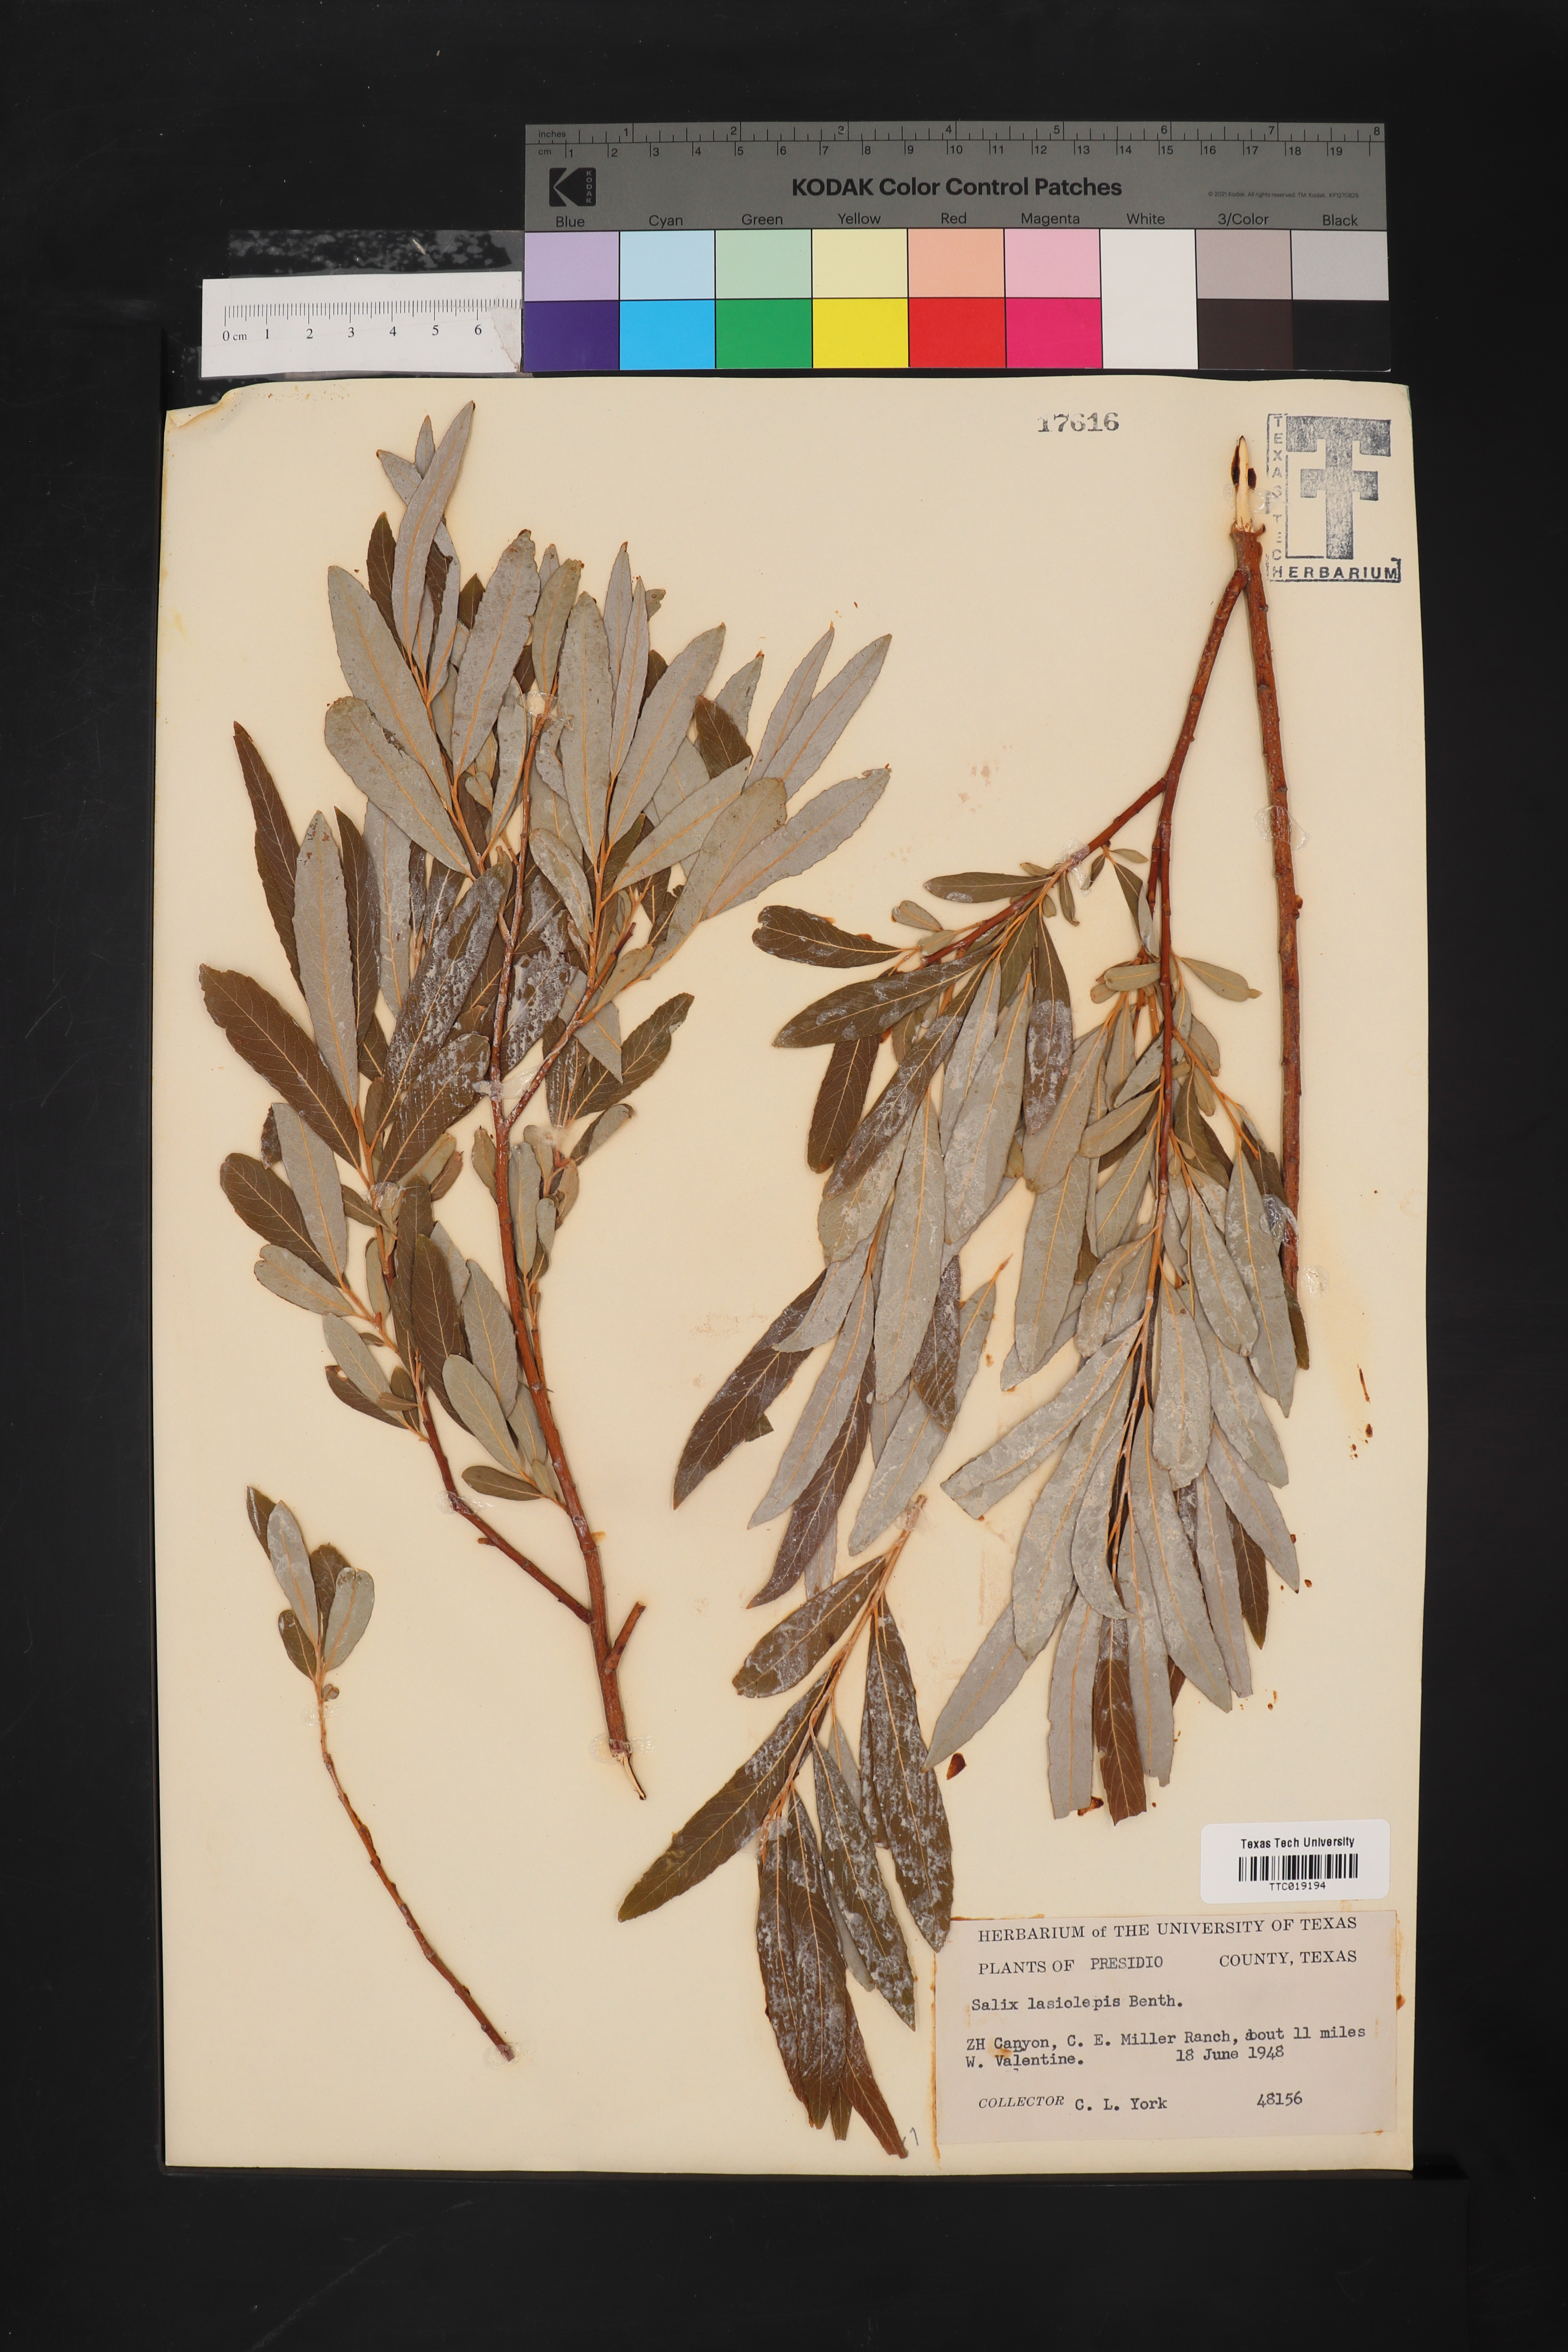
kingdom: Plantae
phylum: Tracheophyta
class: Magnoliopsida
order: Malpighiales
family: Salicaceae
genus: Salix
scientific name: Salix lasiolepis
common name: Arroyo willow
